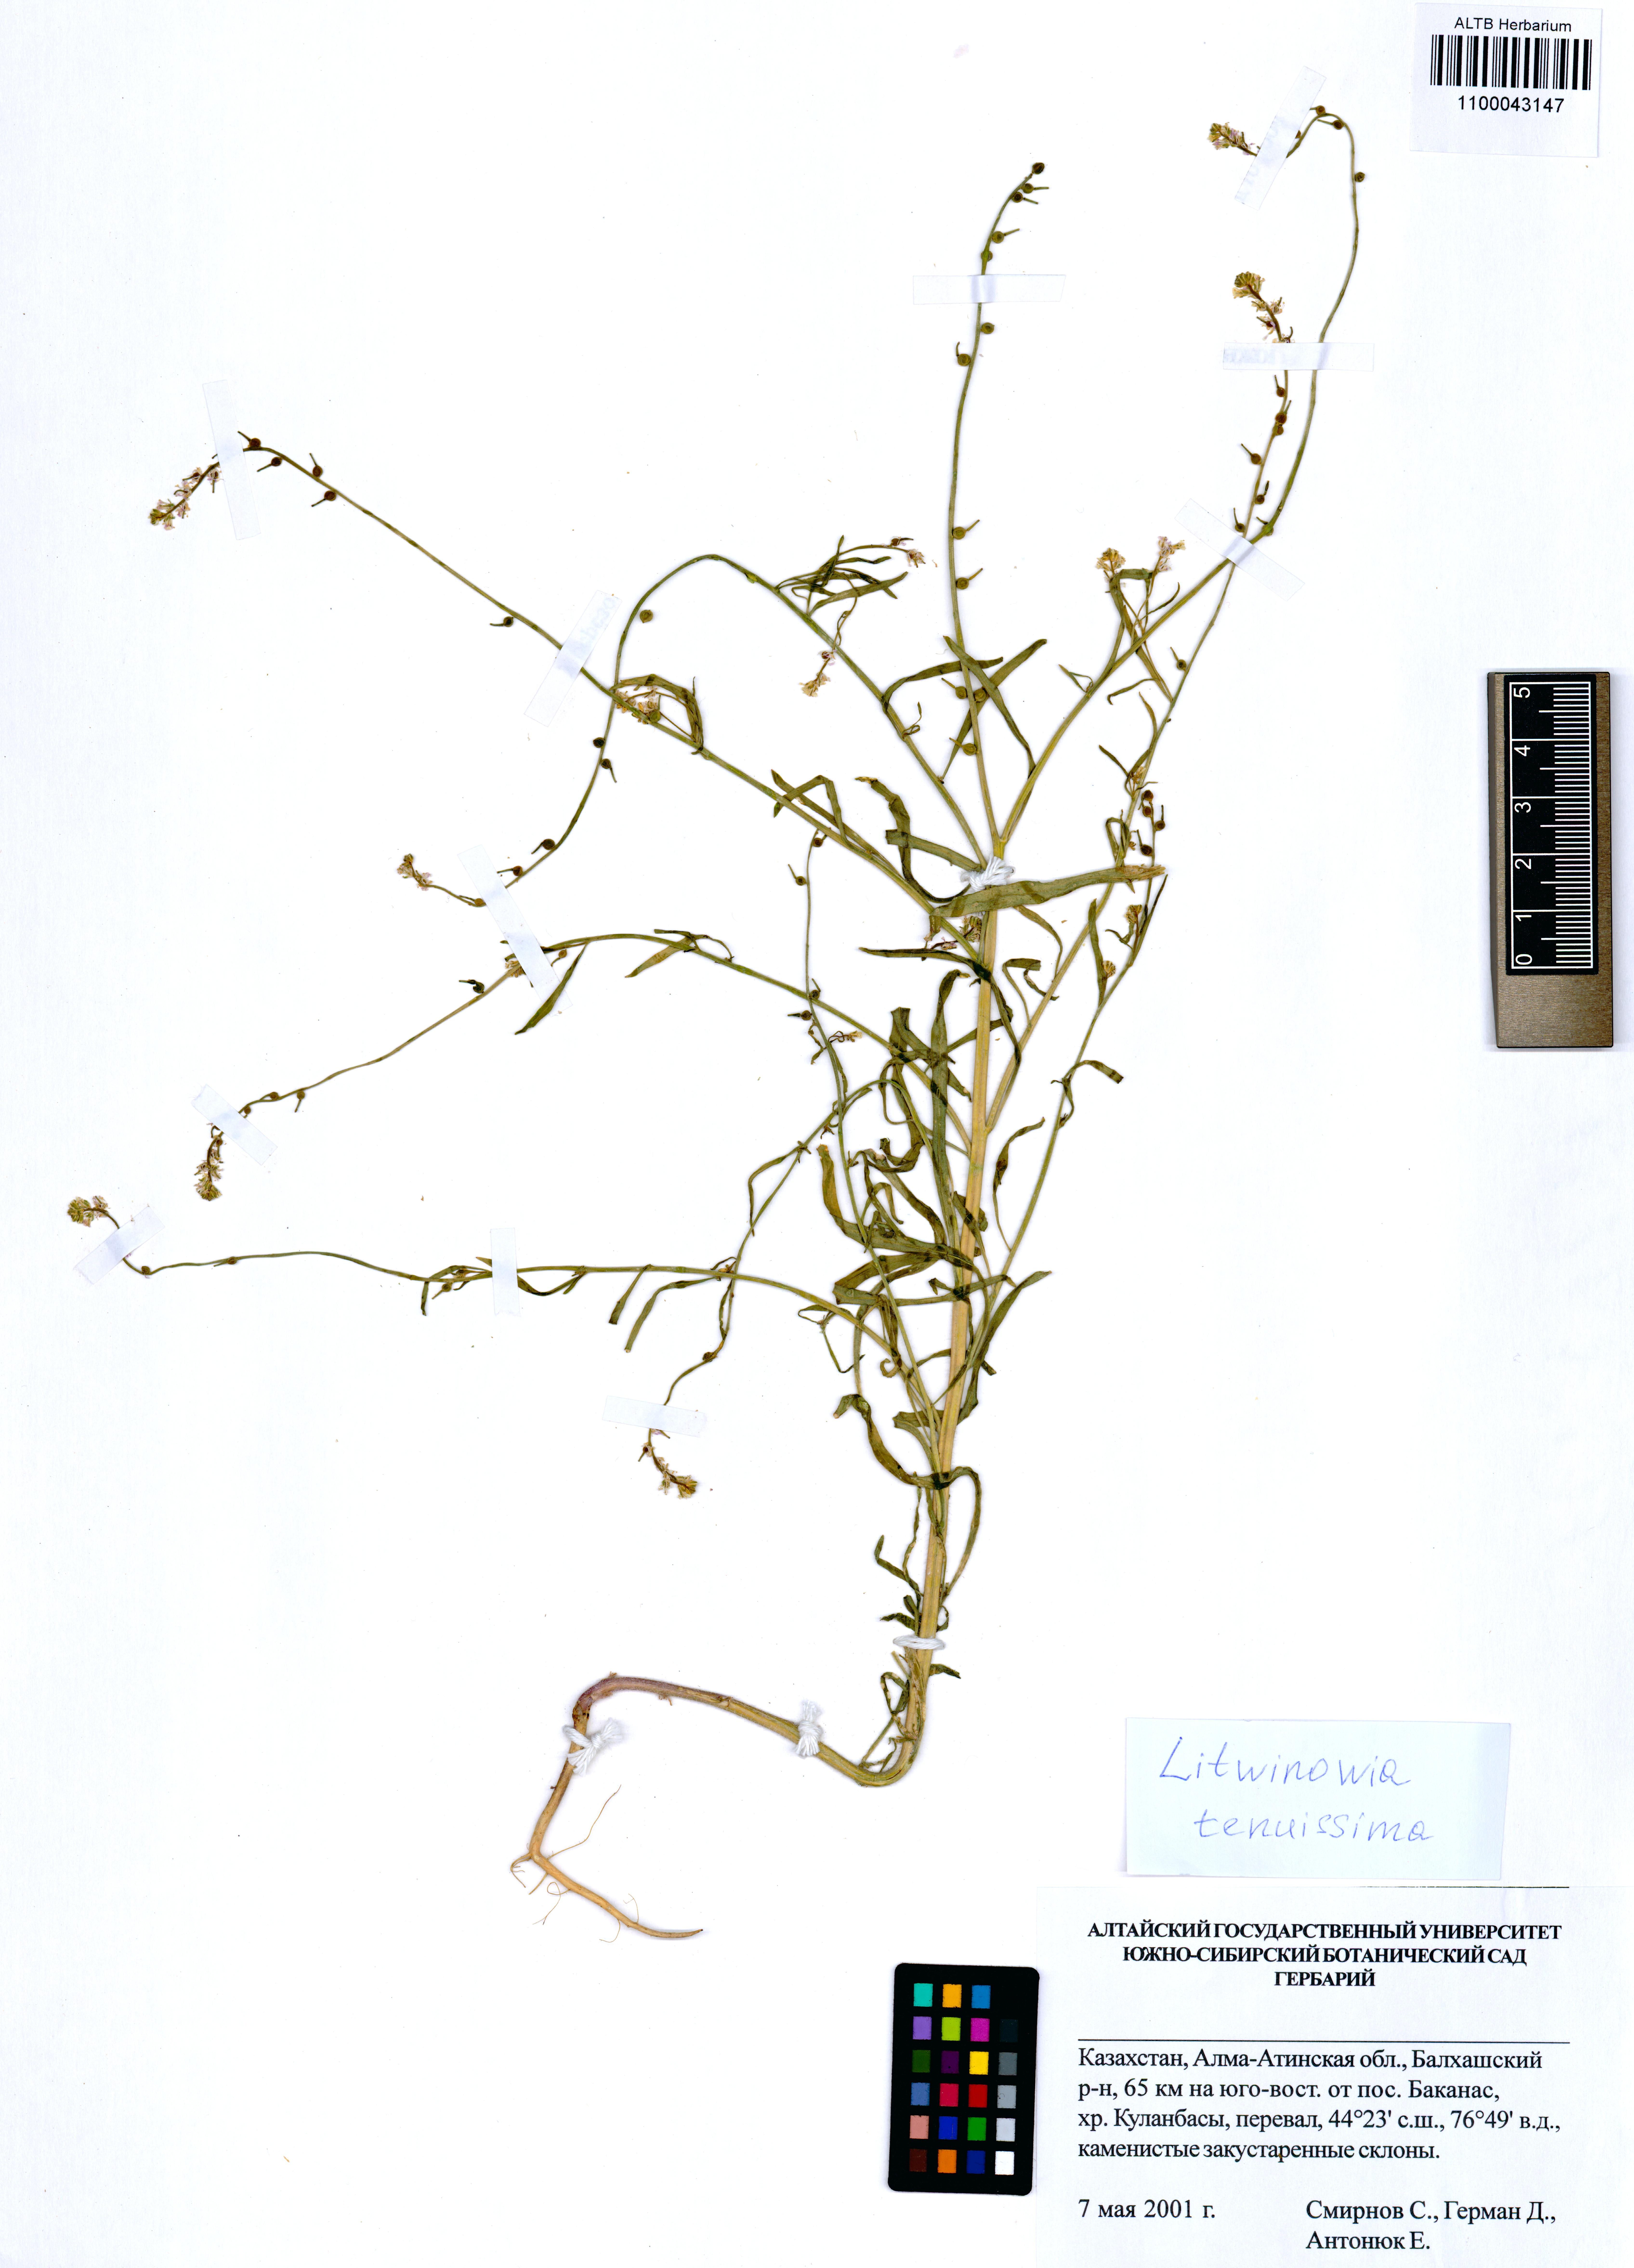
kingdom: Plantae
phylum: Tracheophyta
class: Magnoliopsida
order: Brassicales
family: Brassicaceae
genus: Litwinowia
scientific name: Litwinowia tenuissima
